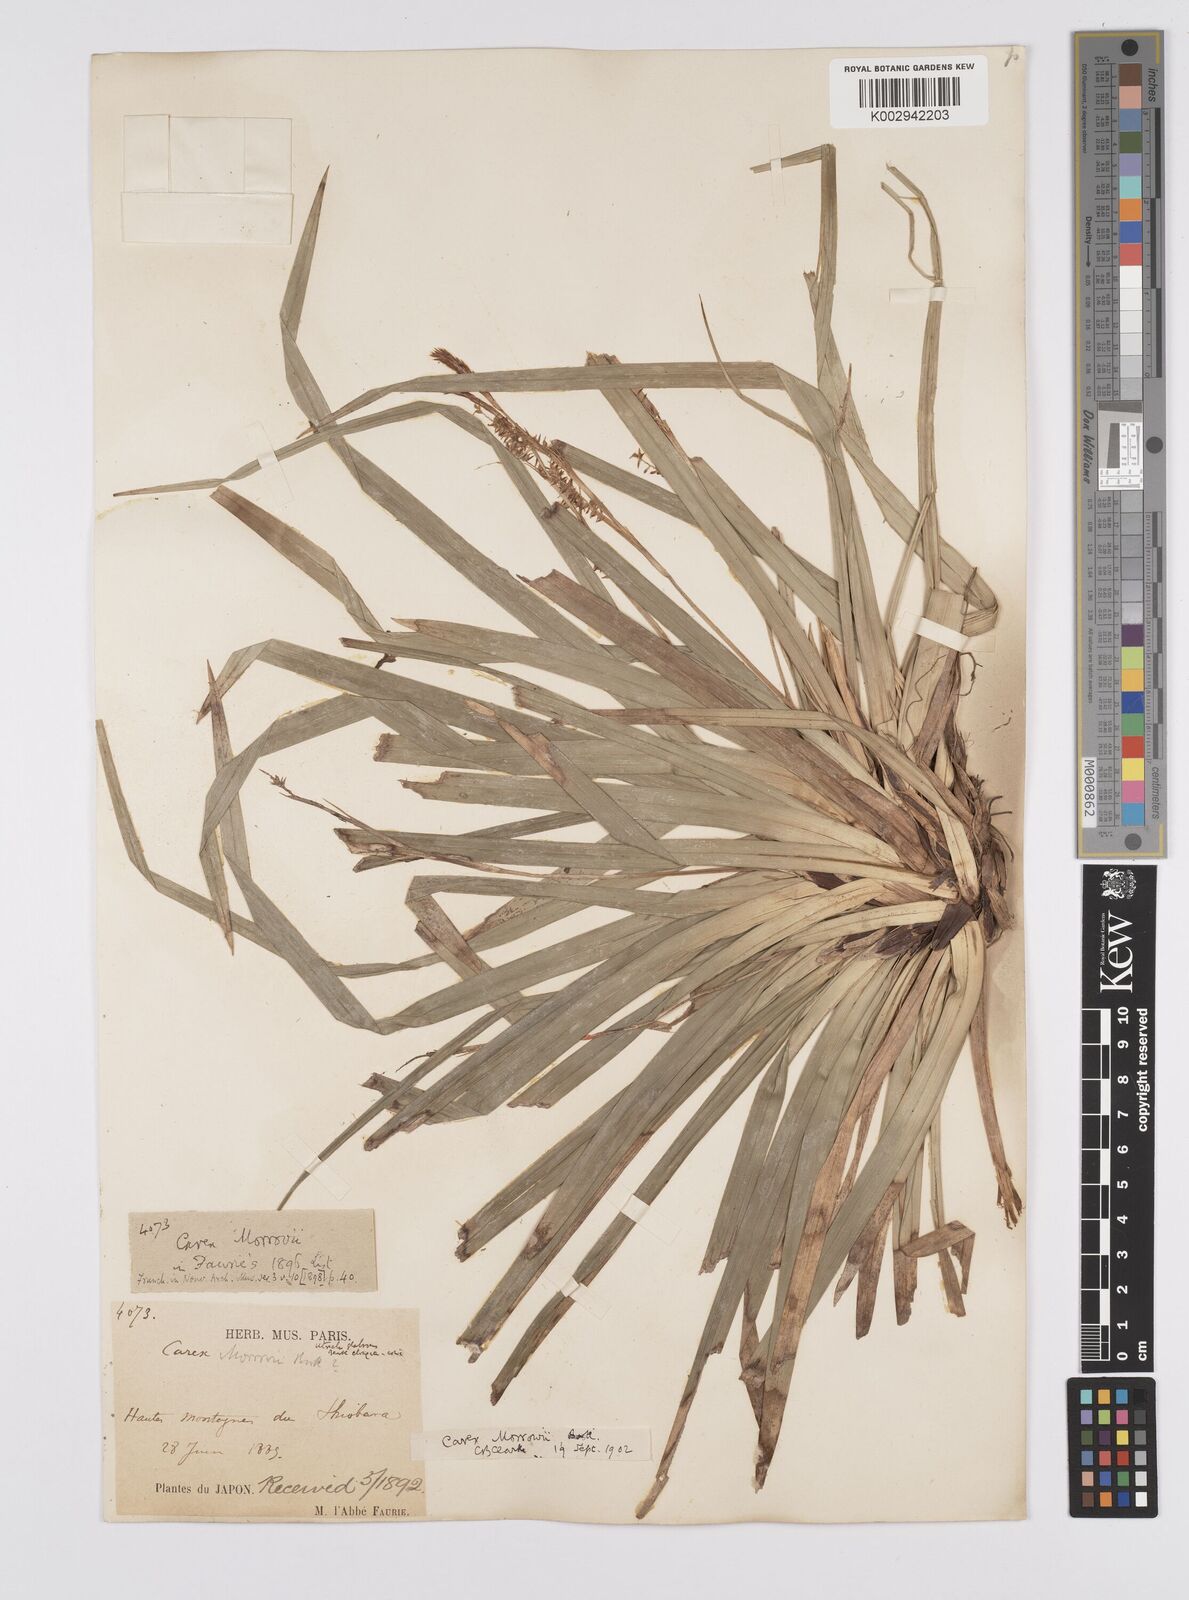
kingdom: Plantae
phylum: Tracheophyta
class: Liliopsida
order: Poales
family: Cyperaceae
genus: Carex
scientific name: Carex morrowii
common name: Japanese sedge
